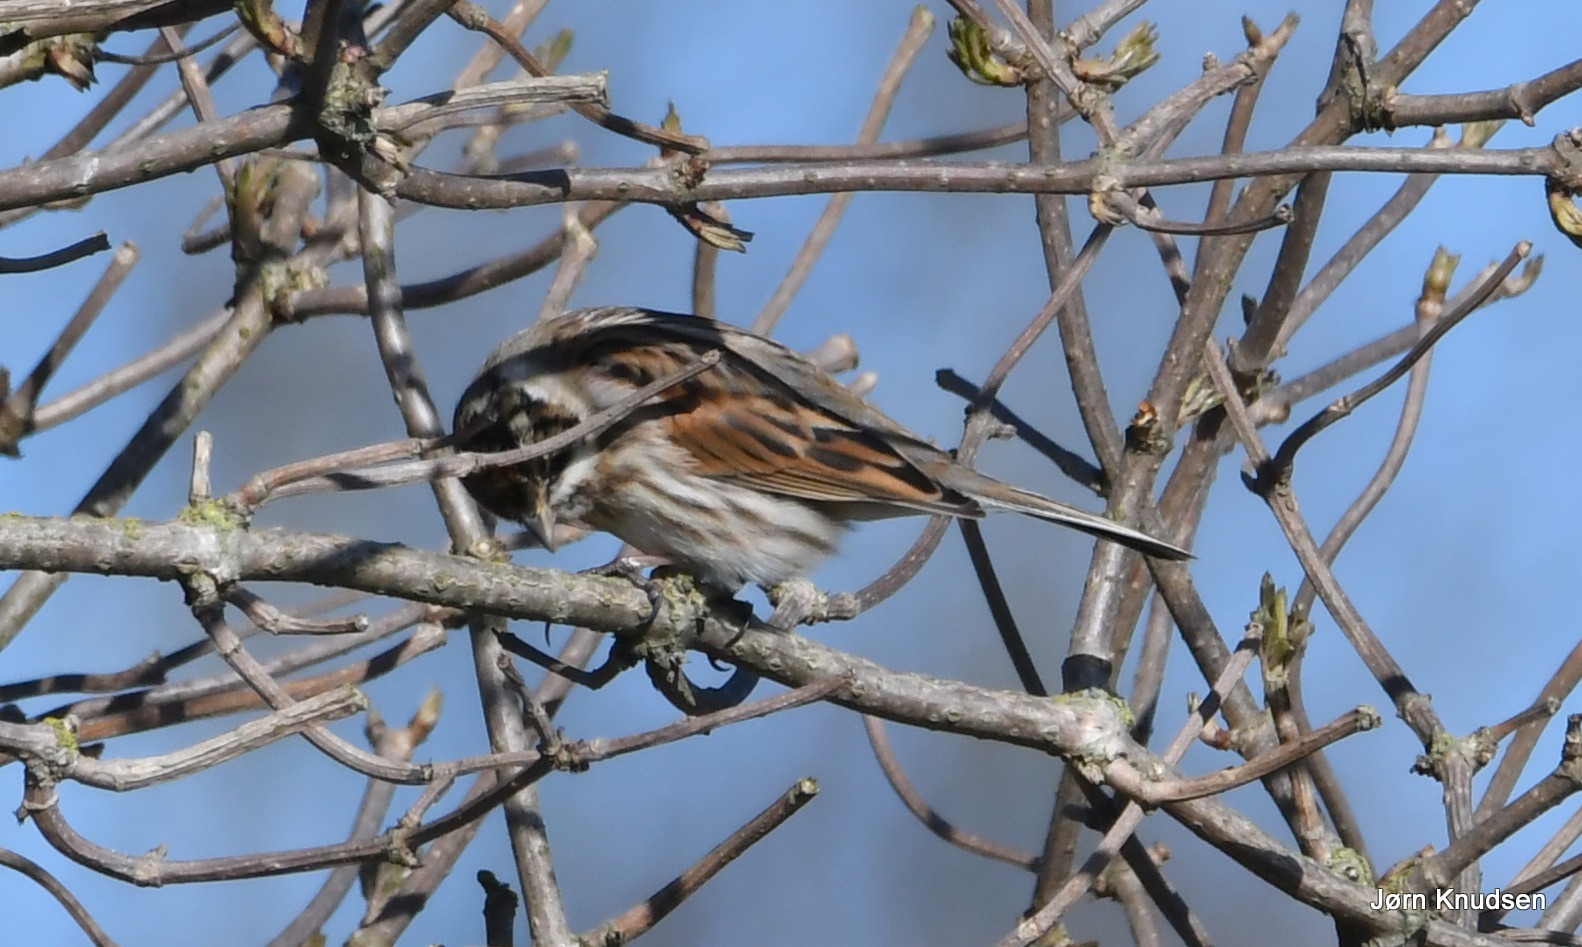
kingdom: Animalia
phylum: Chordata
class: Aves
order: Passeriformes
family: Emberizidae
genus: Emberiza
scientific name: Emberiza schoeniclus
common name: Rørspurv
